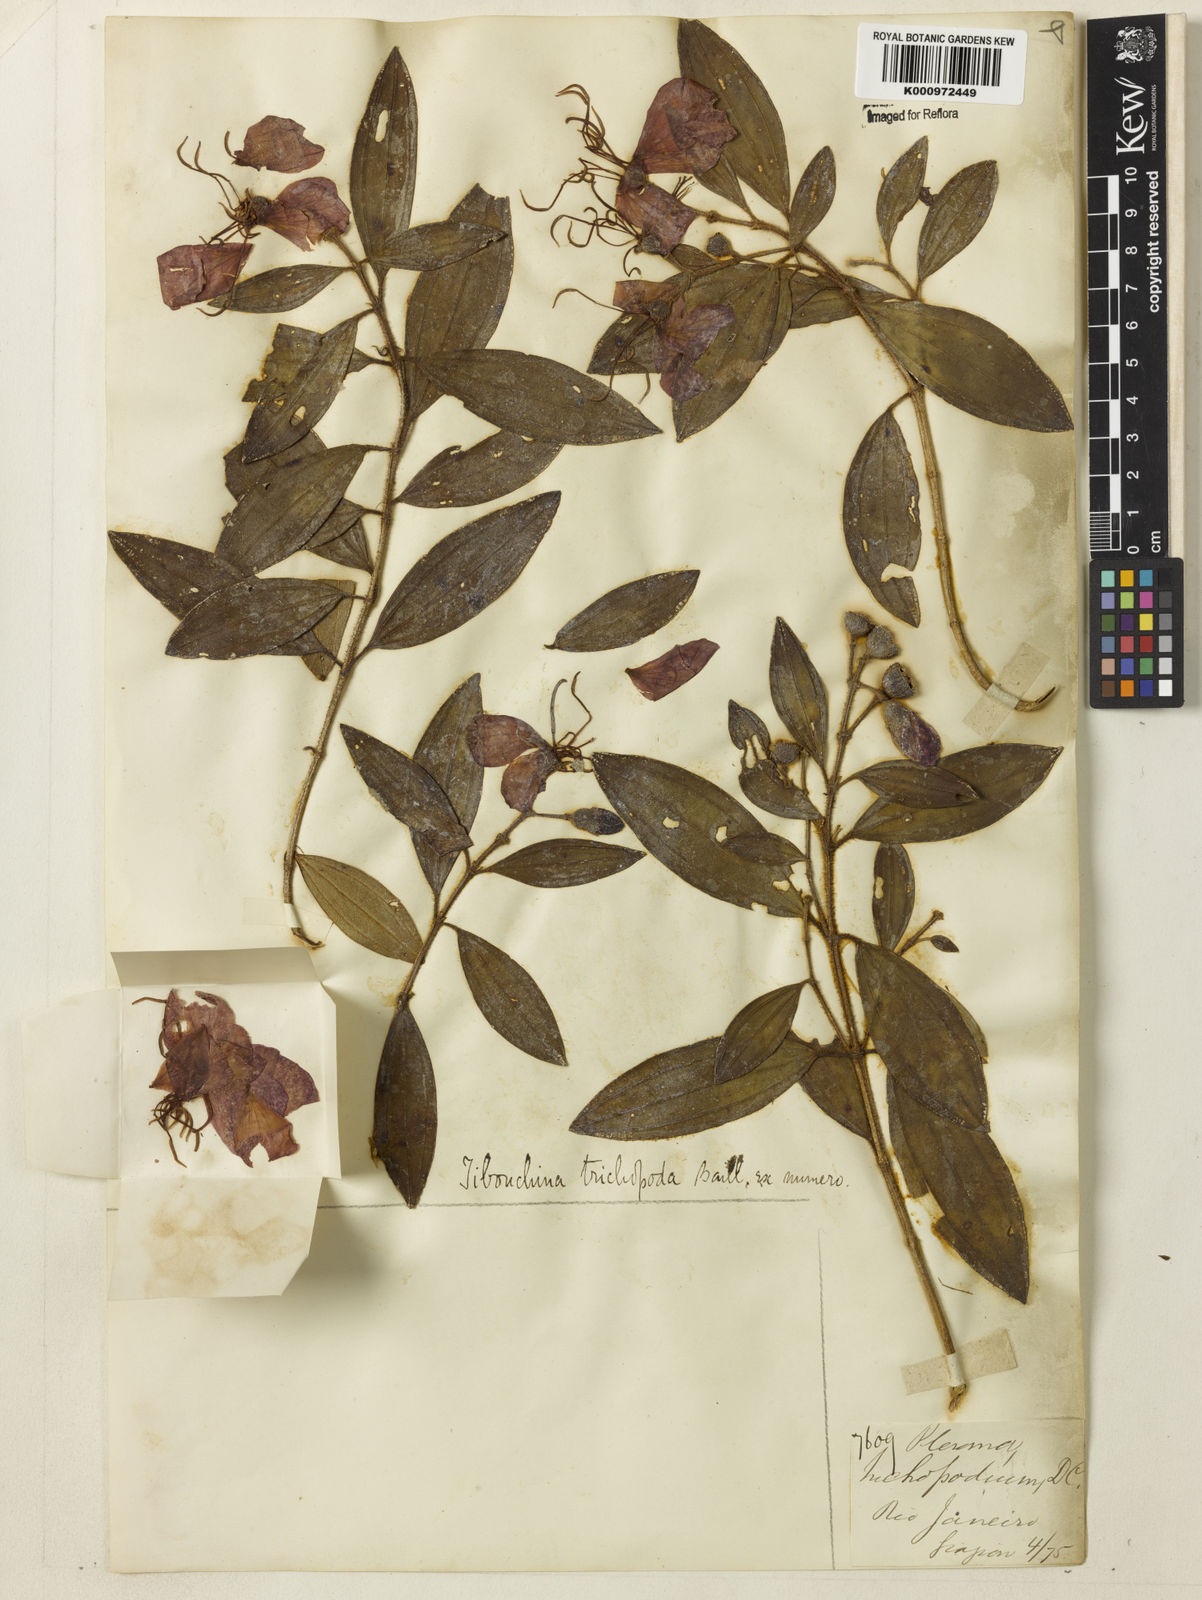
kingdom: Plantae
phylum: Tracheophyta
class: Magnoliopsida
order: Myrtales
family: Melastomataceae
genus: Pleroma
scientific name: Pleroma trichopodum
